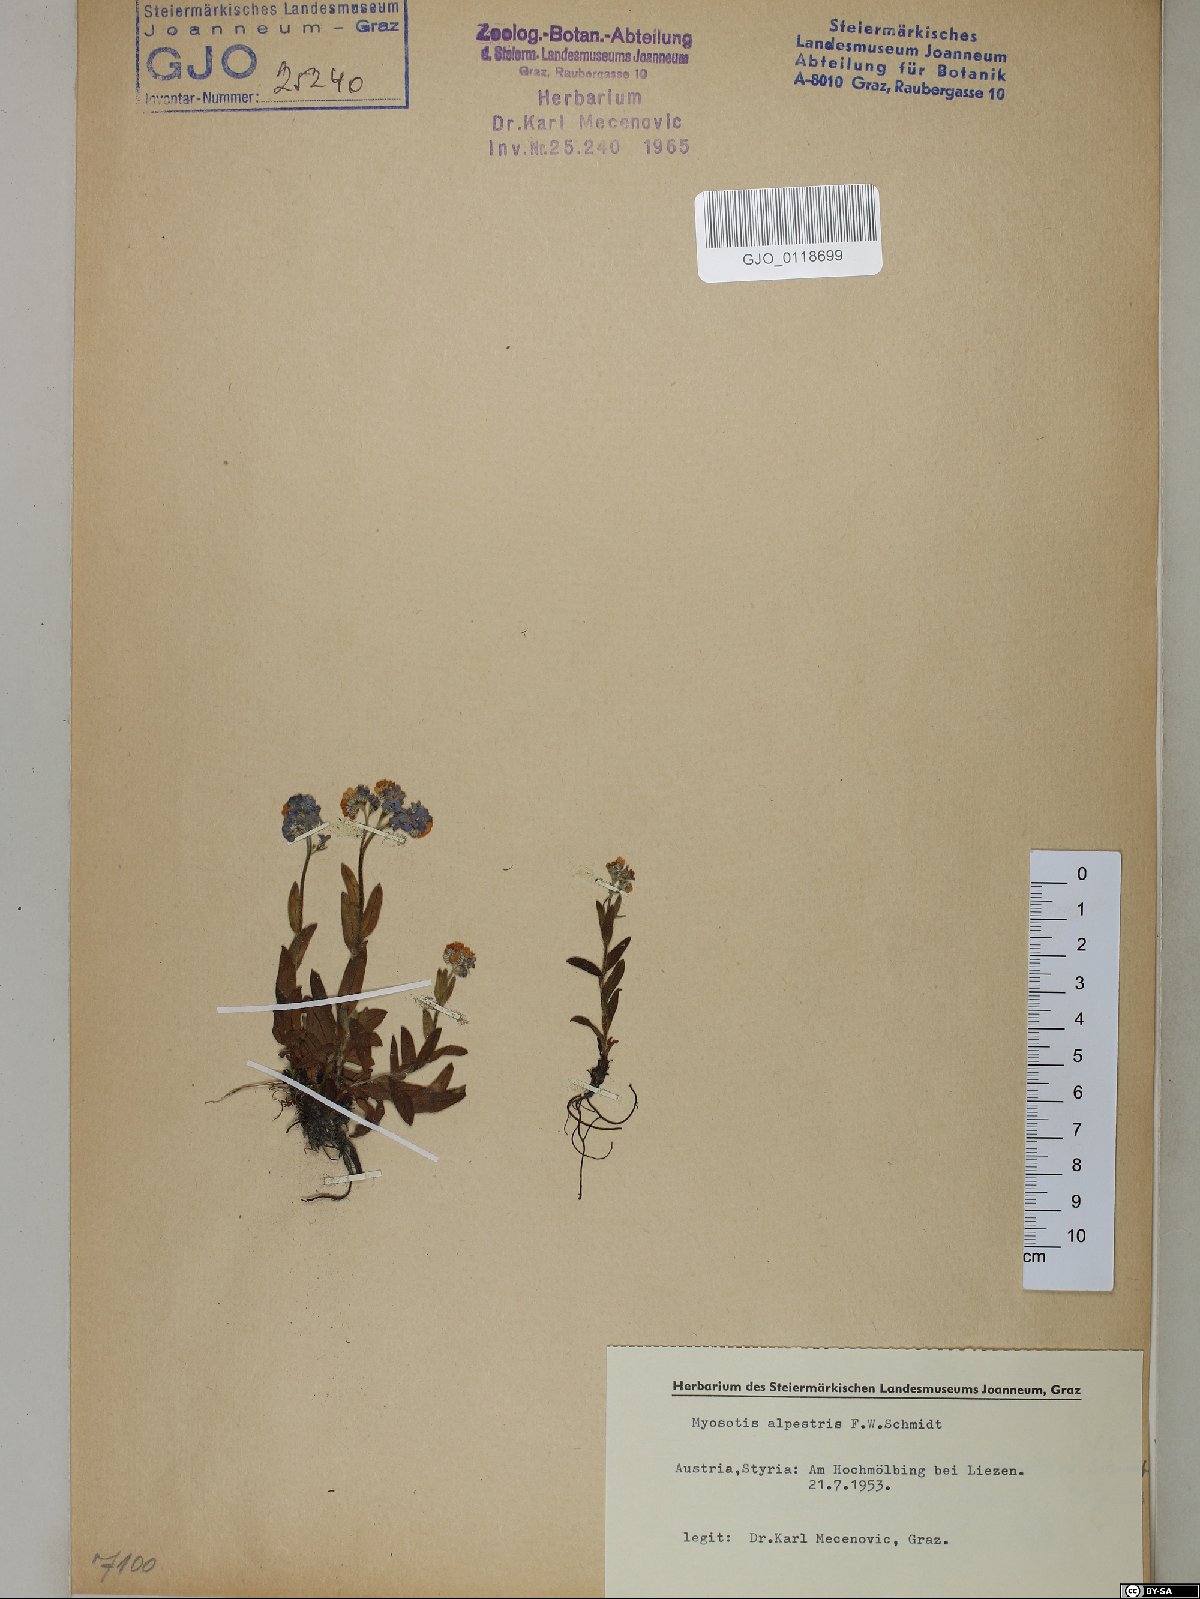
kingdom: Plantae
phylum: Tracheophyta
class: Magnoliopsida
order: Boraginales
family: Boraginaceae
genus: Myosotis
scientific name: Myosotis alpestris
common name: Alpine forget-me-not
